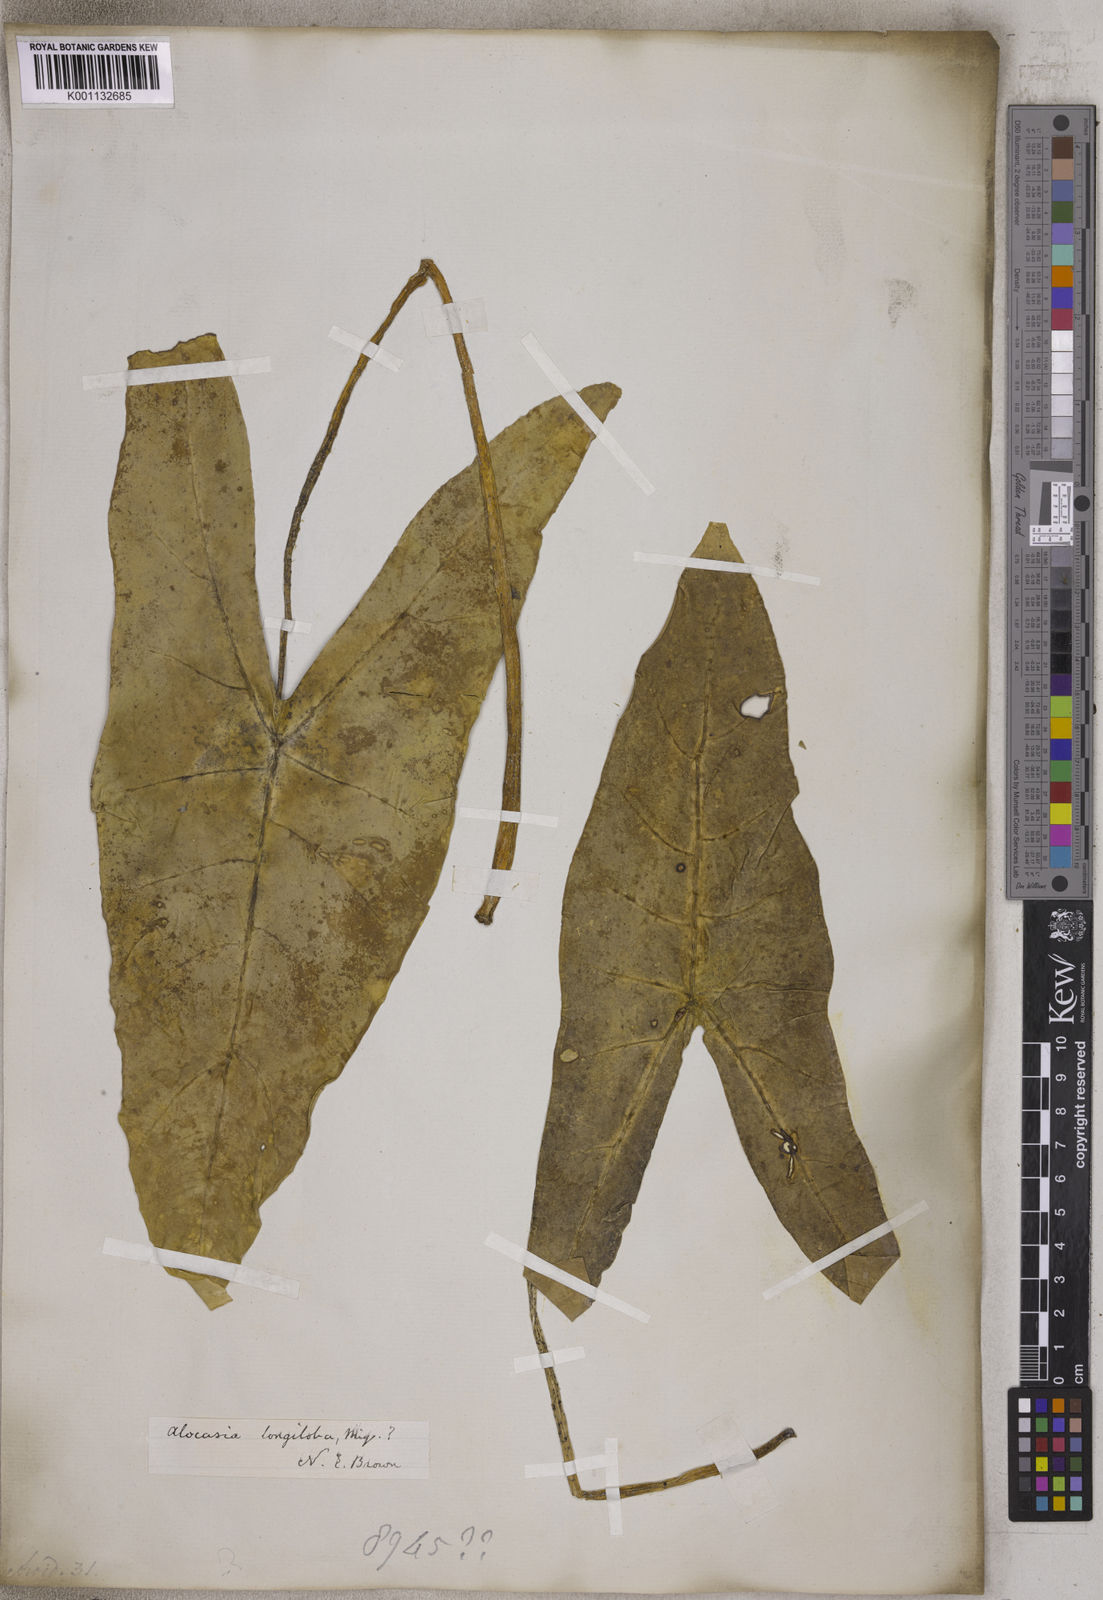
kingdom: Plantae
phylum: Tracheophyta
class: Liliopsida
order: Alismatales
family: Araceae
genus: Alocasia
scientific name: Alocasia longiloba
